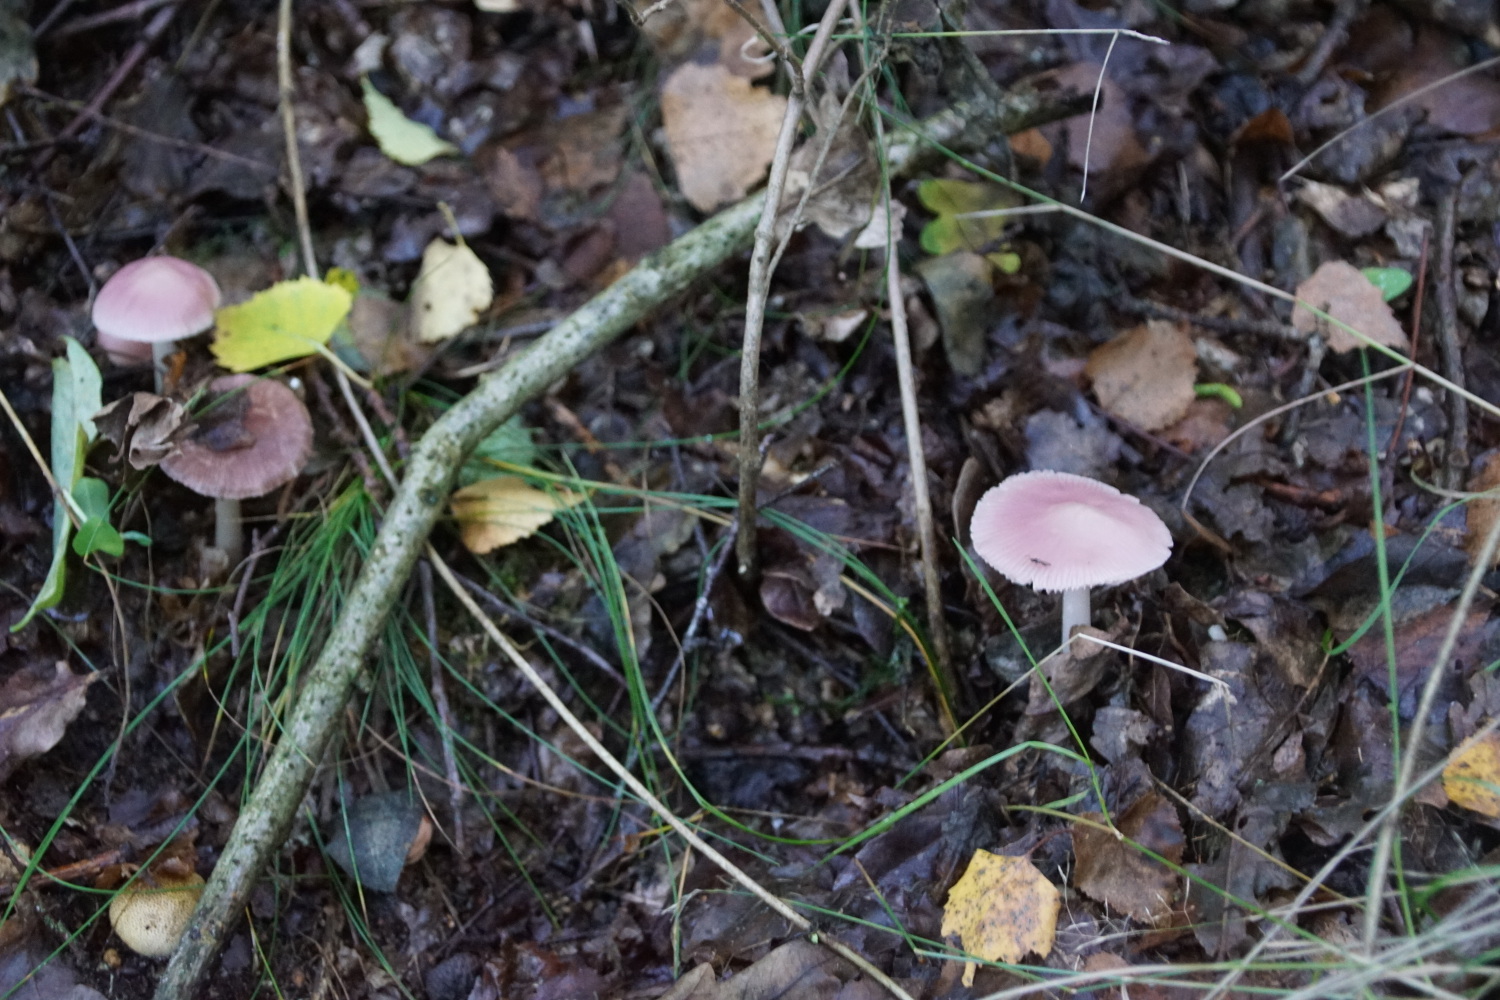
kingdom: Fungi
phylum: Basidiomycota
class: Agaricomycetes
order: Agaricales
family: Mycenaceae
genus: Mycena
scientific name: Mycena rosea
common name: rosa huesvamp
